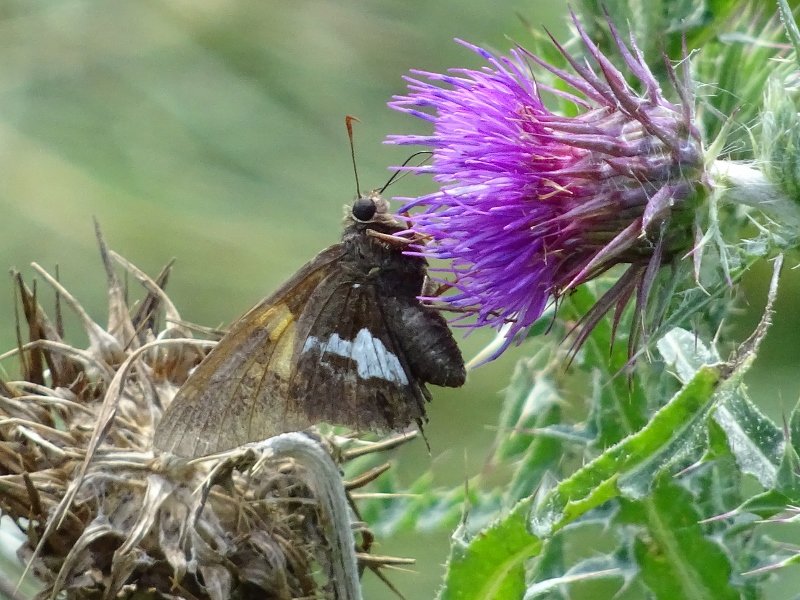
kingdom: Animalia
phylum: Arthropoda
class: Insecta
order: Lepidoptera
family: Hesperiidae
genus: Epargyreus
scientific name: Epargyreus clarus
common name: Silver-spotted Skipper
